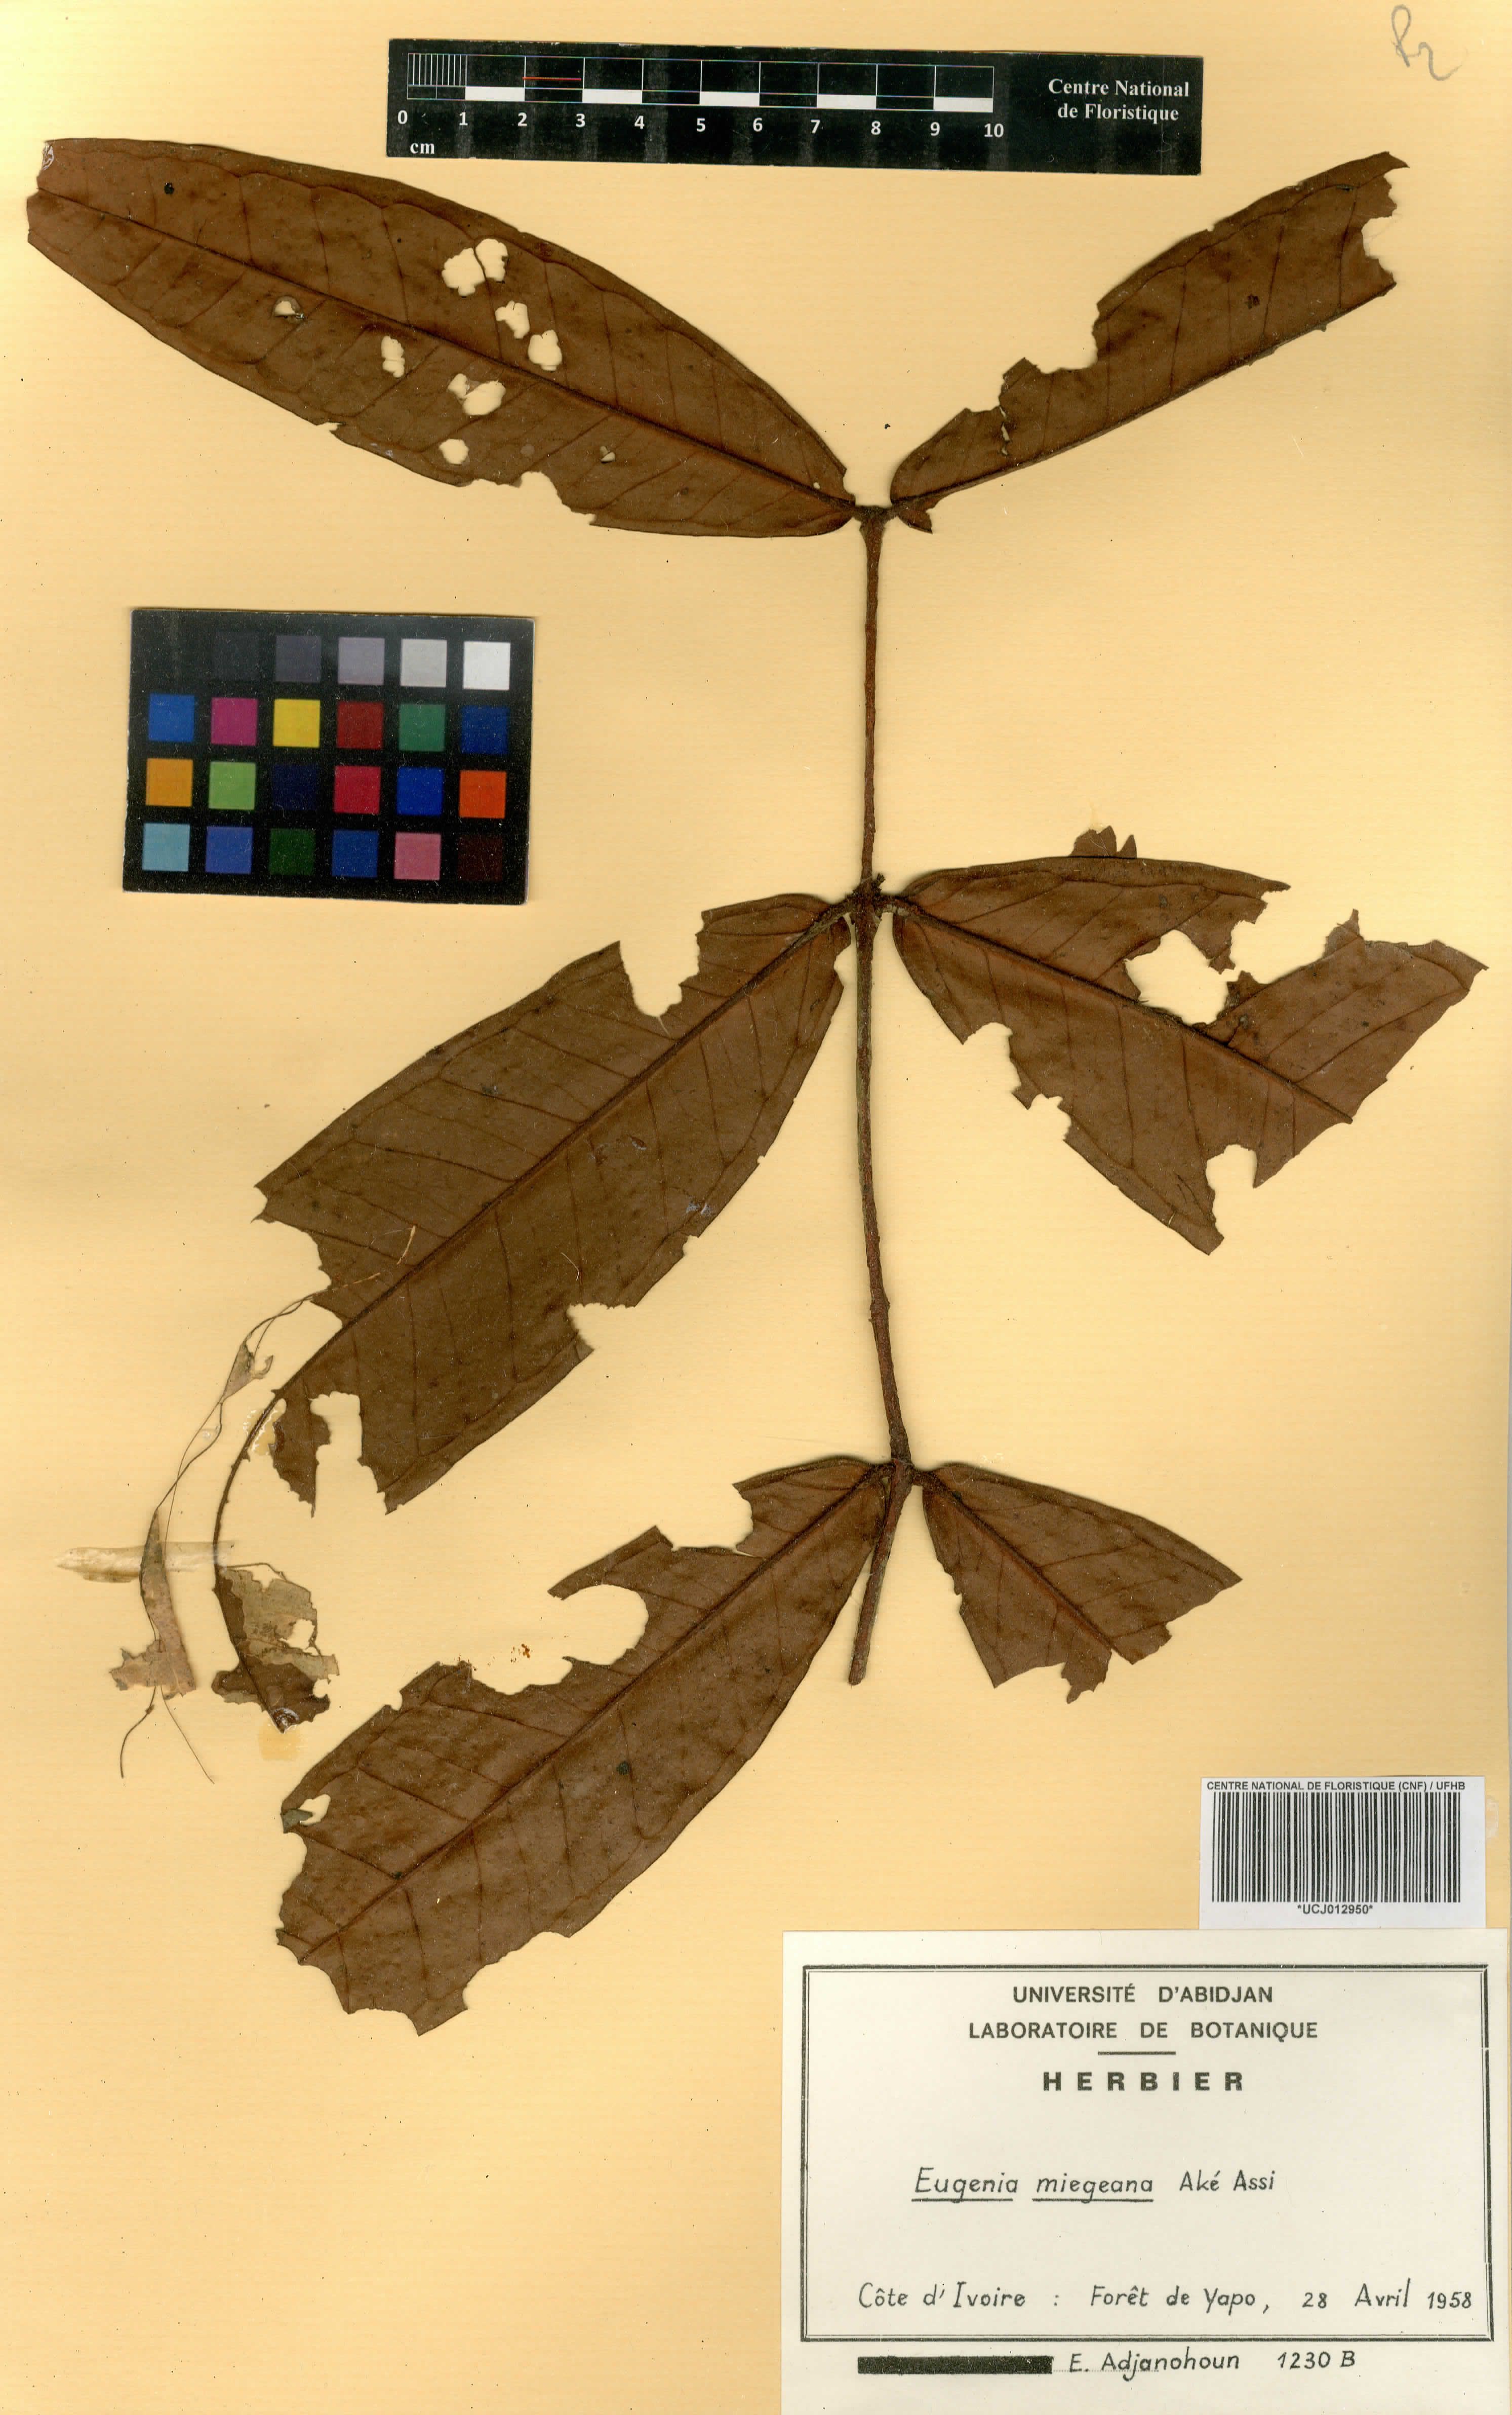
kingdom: Plantae
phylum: Tracheophyta
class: Magnoliopsida
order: Myrtales
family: Myrtaceae
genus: Eugenia
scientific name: Eugenia gabonensis
